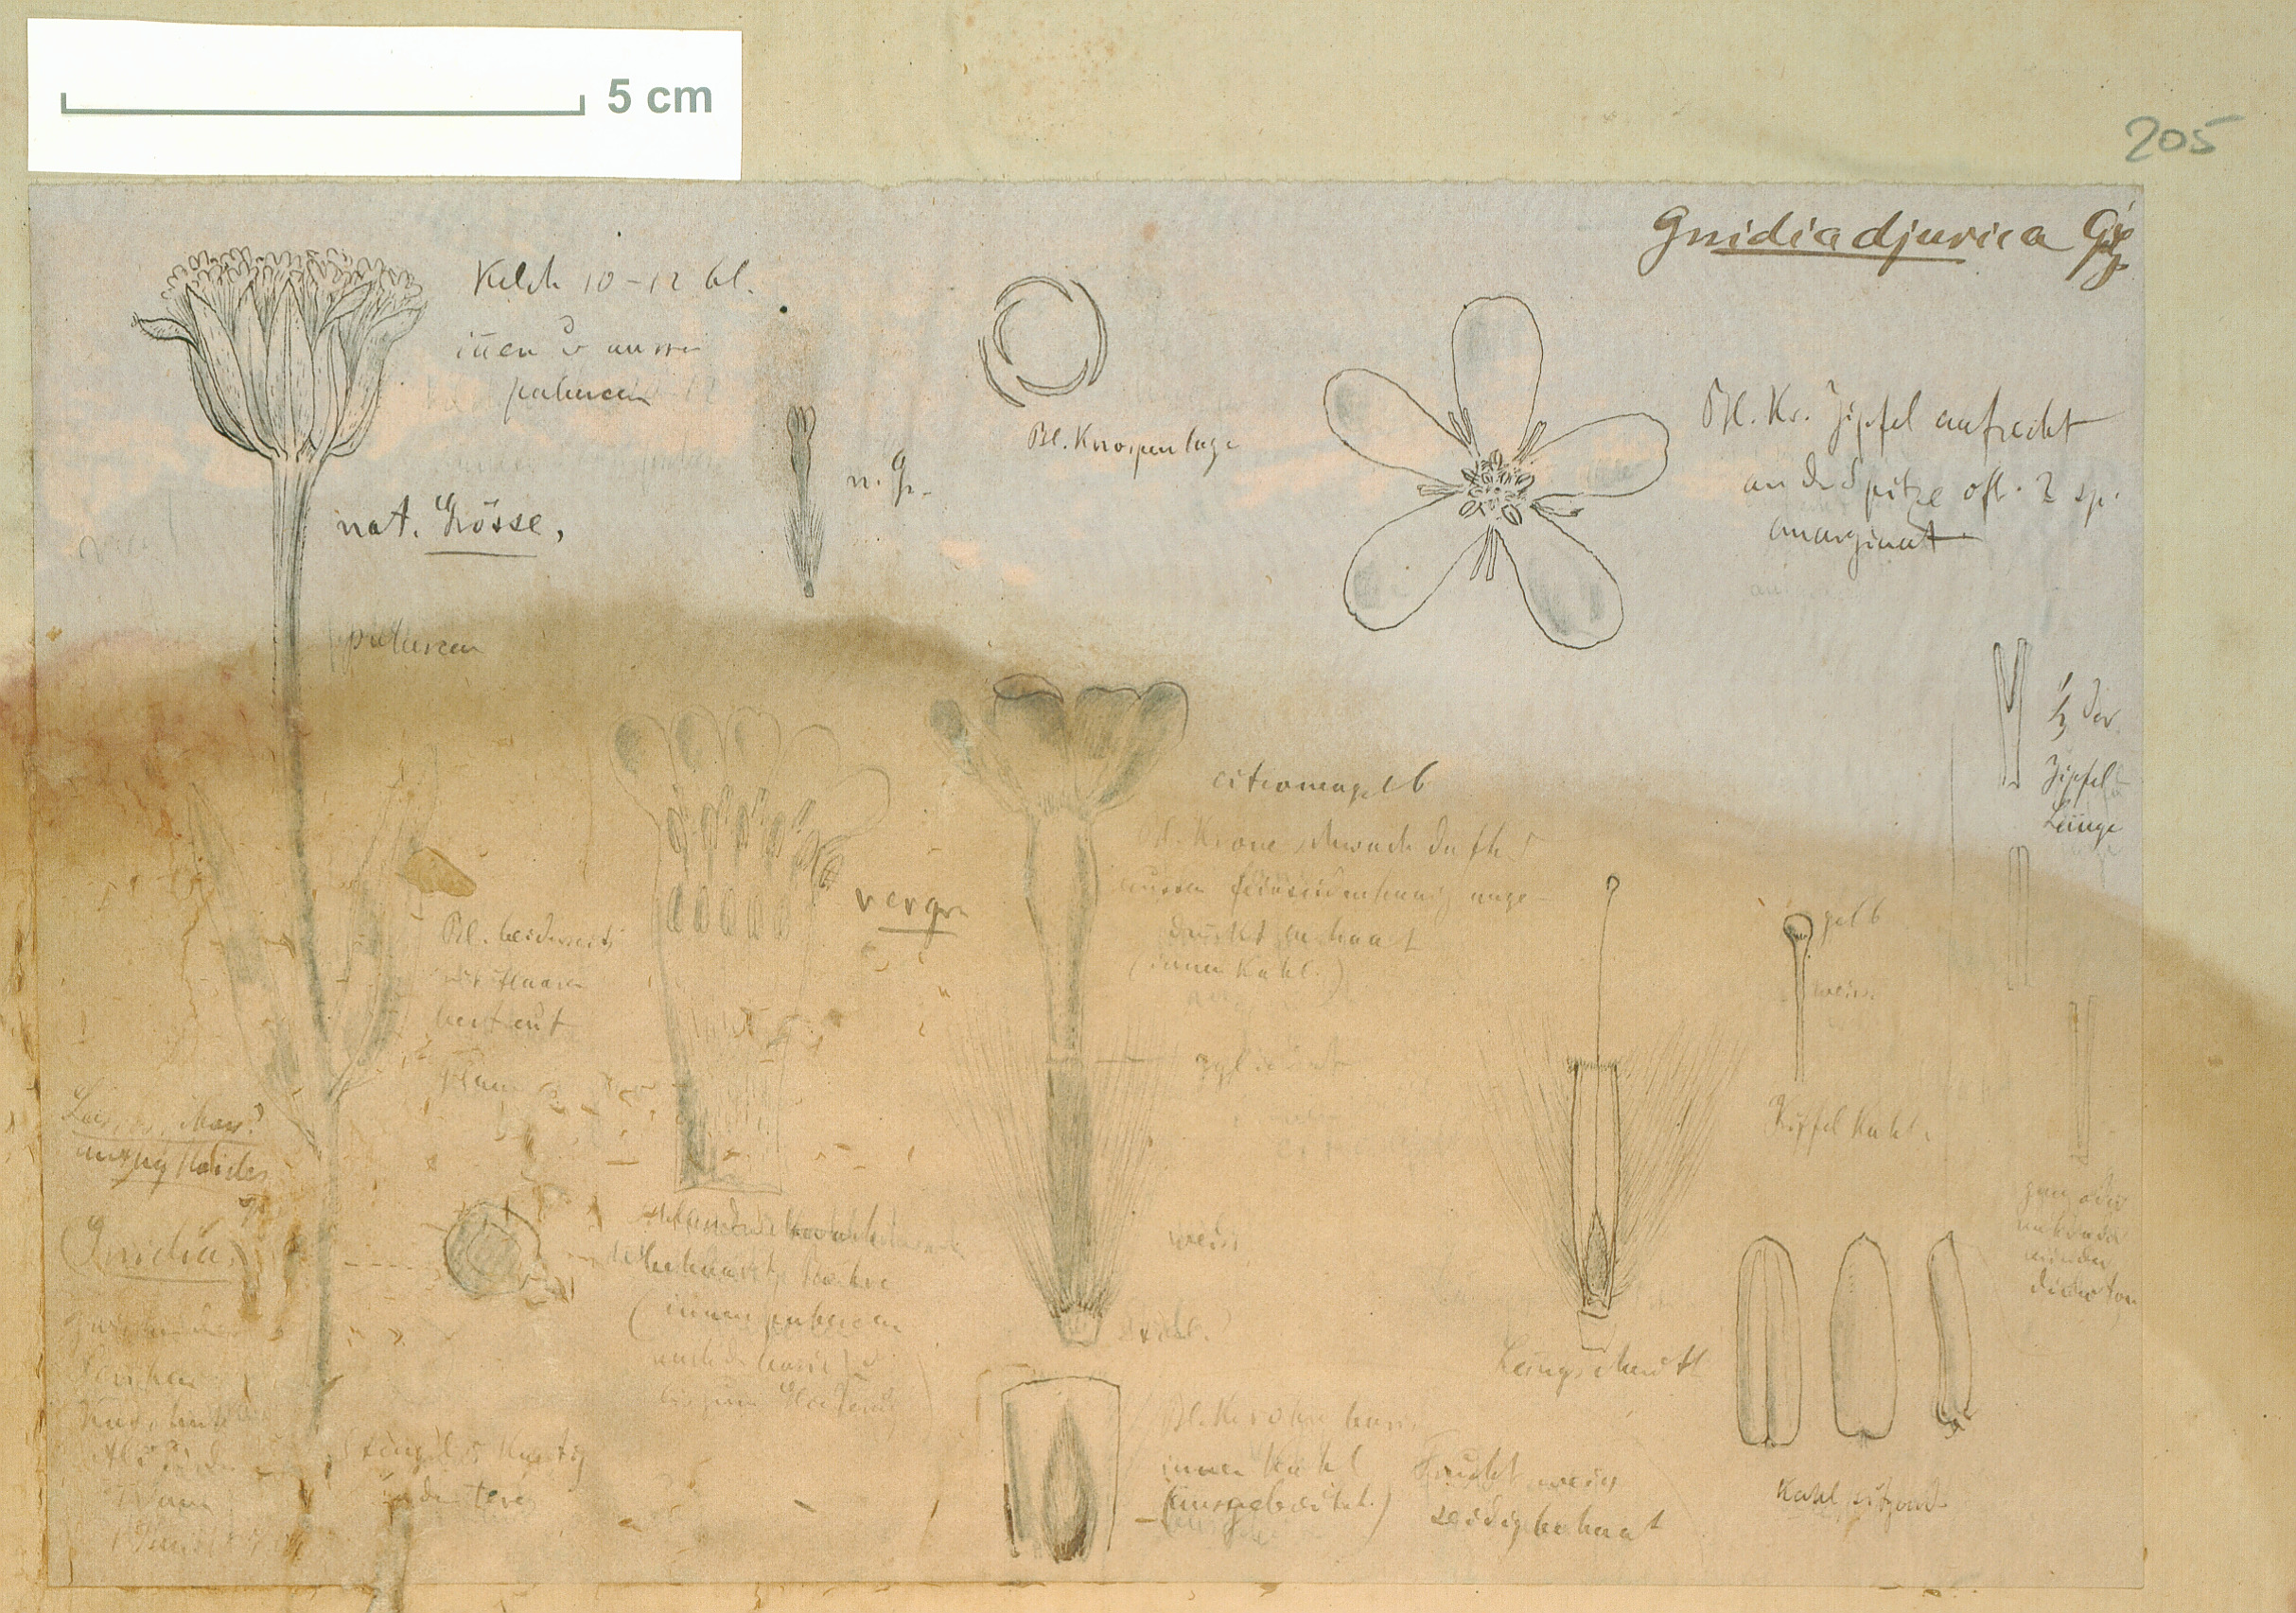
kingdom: Plantae
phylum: Tracheophyta
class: Magnoliopsida
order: Malvales
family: Thymelaeaceae
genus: Gnidia
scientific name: Gnidia kraussiana
